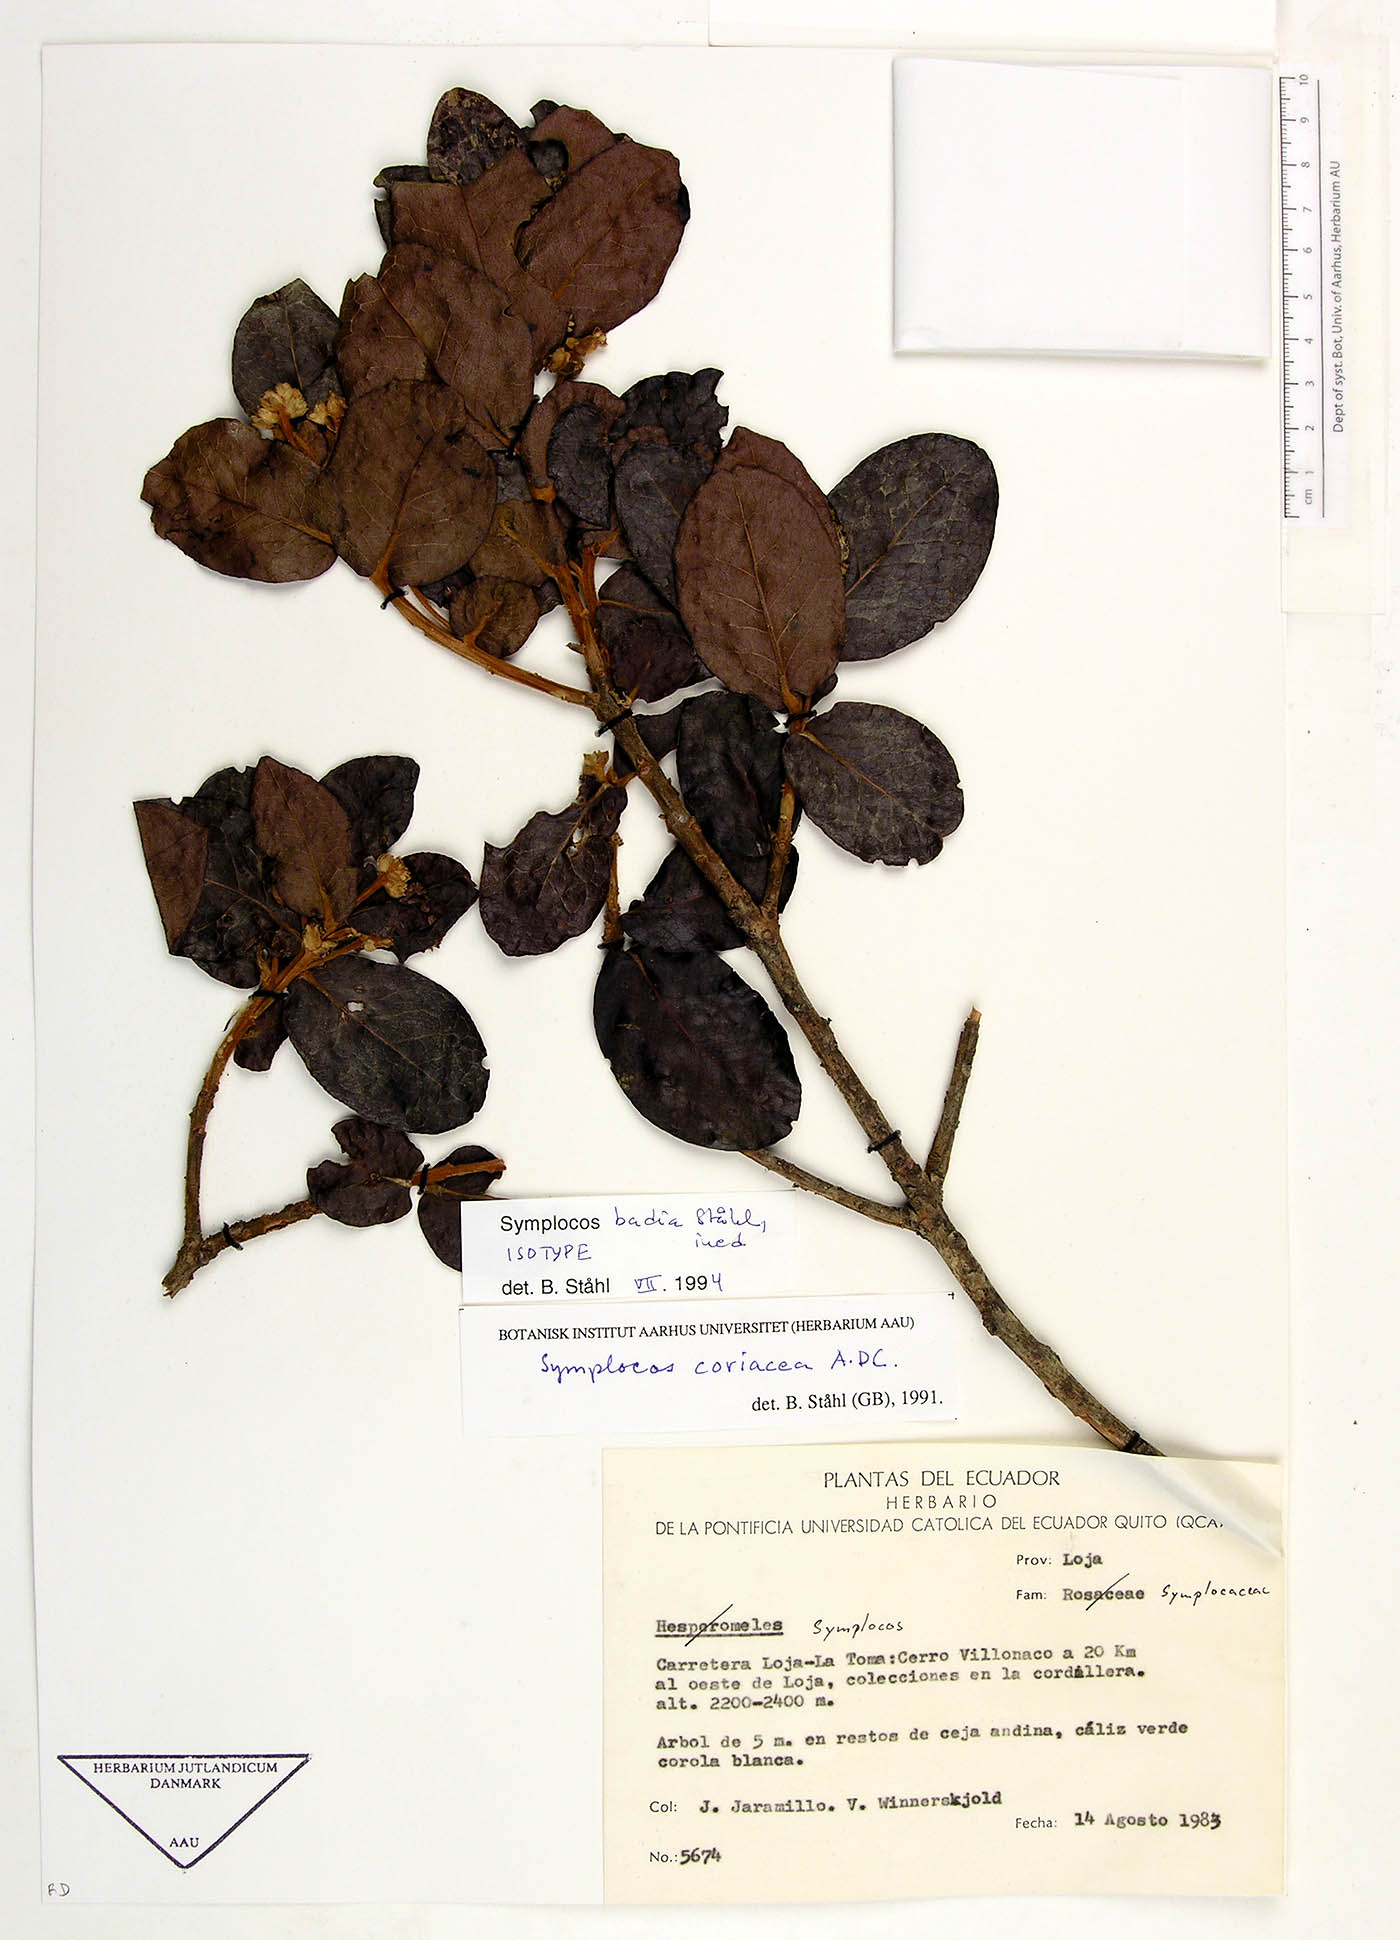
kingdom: Plantae
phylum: Tracheophyta
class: Magnoliopsida
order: Ericales
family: Symplocaceae
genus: Symplocos
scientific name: Symplocos badia
